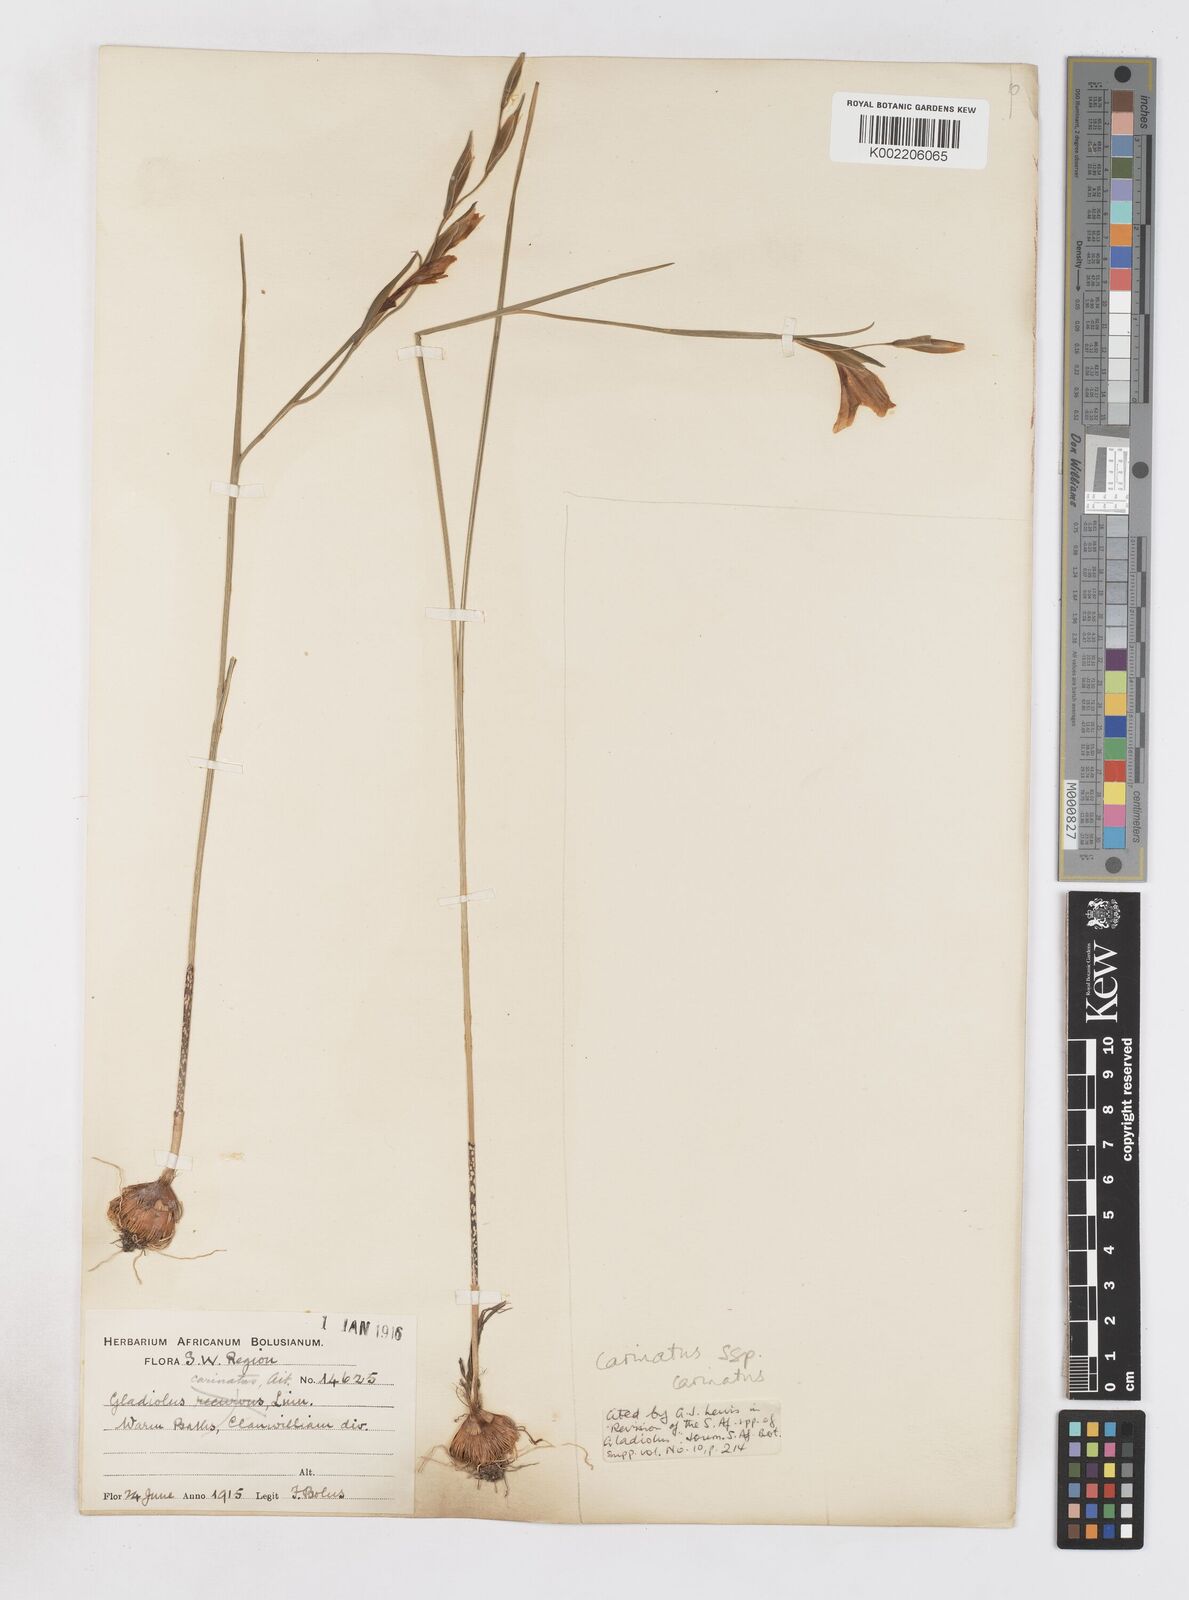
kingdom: Plantae
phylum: Tracheophyta
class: Liliopsida
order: Asparagales
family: Iridaceae
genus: Gladiolus
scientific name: Gladiolus carinatus
